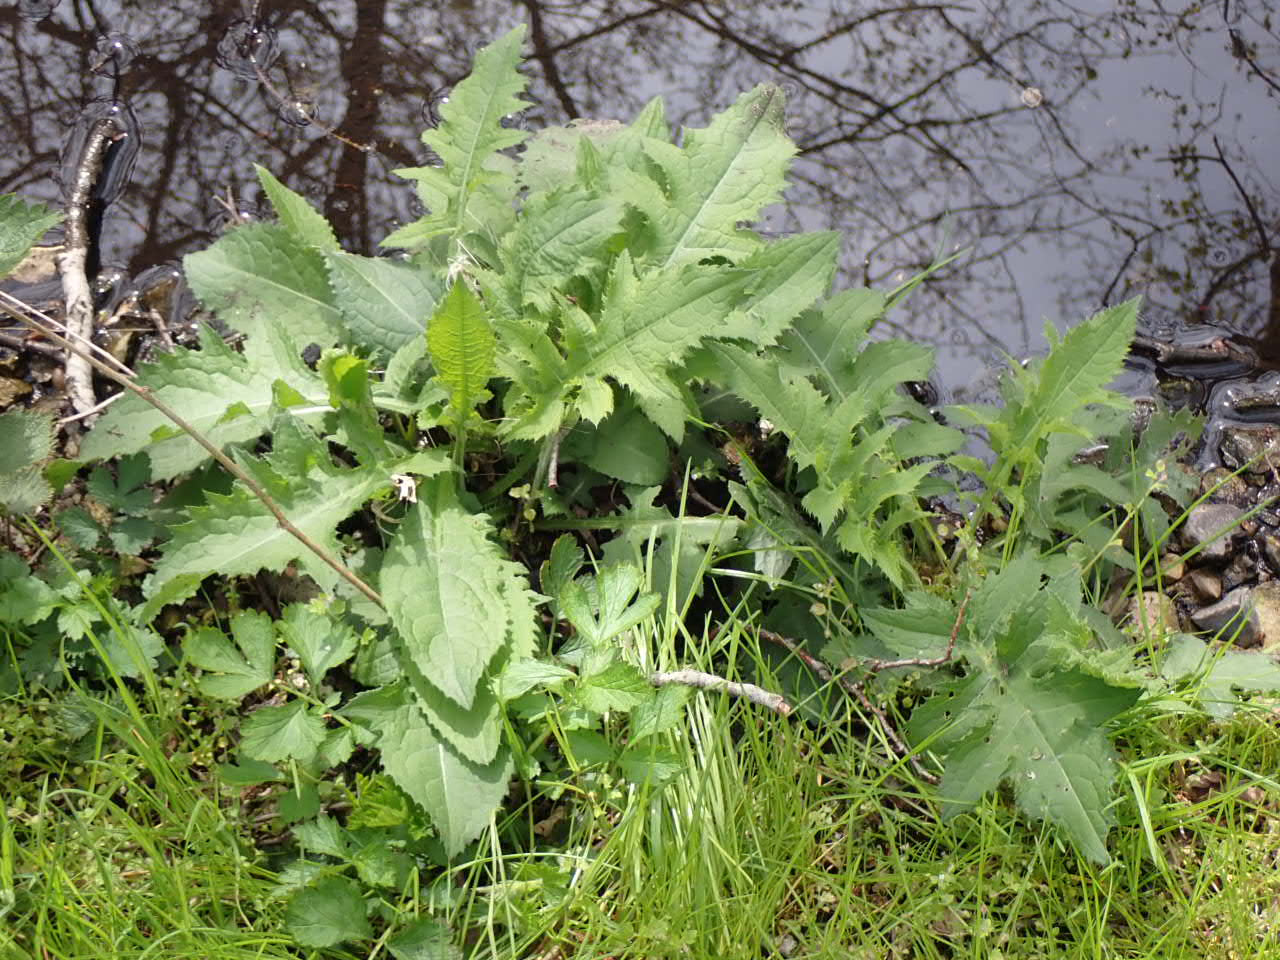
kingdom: Plantae
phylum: Tracheophyta
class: Magnoliopsida
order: Asterales
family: Asteraceae
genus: Cirsium
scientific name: Cirsium oleraceum
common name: Kål-tidsel
